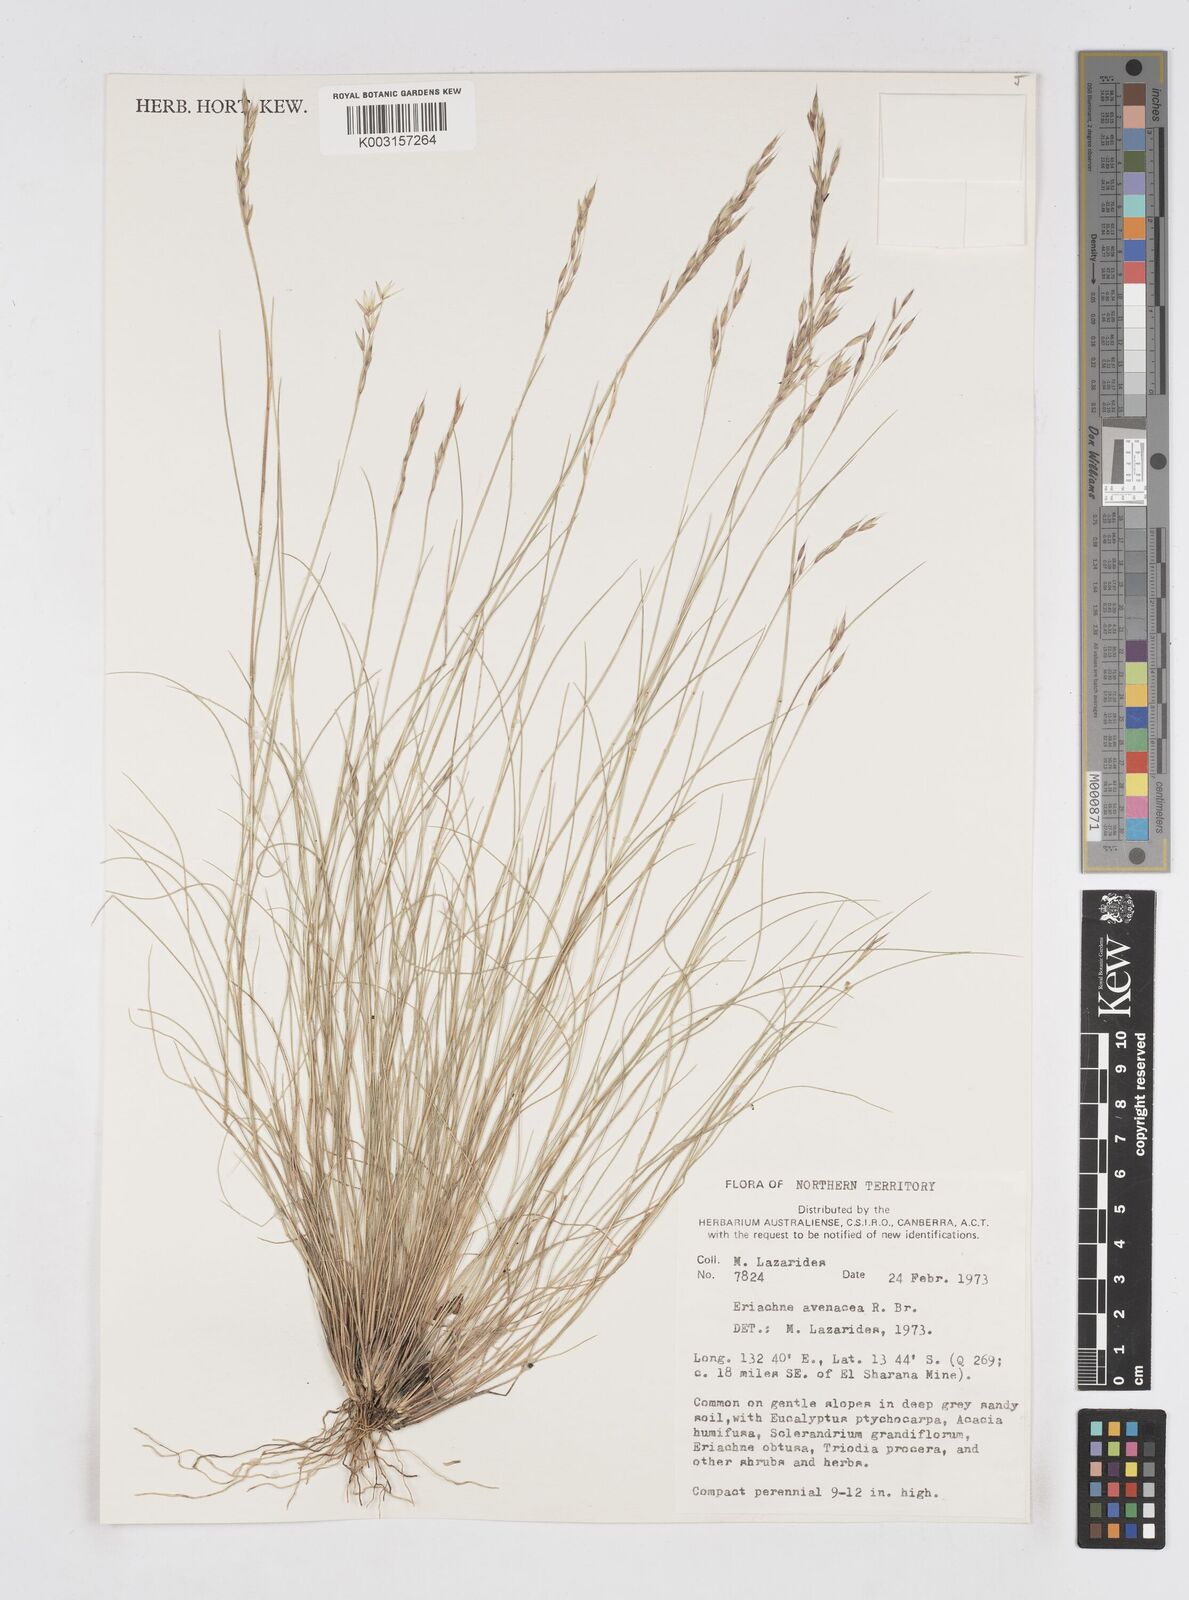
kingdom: Plantae
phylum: Tracheophyta
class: Liliopsida
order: Poales
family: Poaceae
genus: Eriachne
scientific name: Eriachne avenacea
